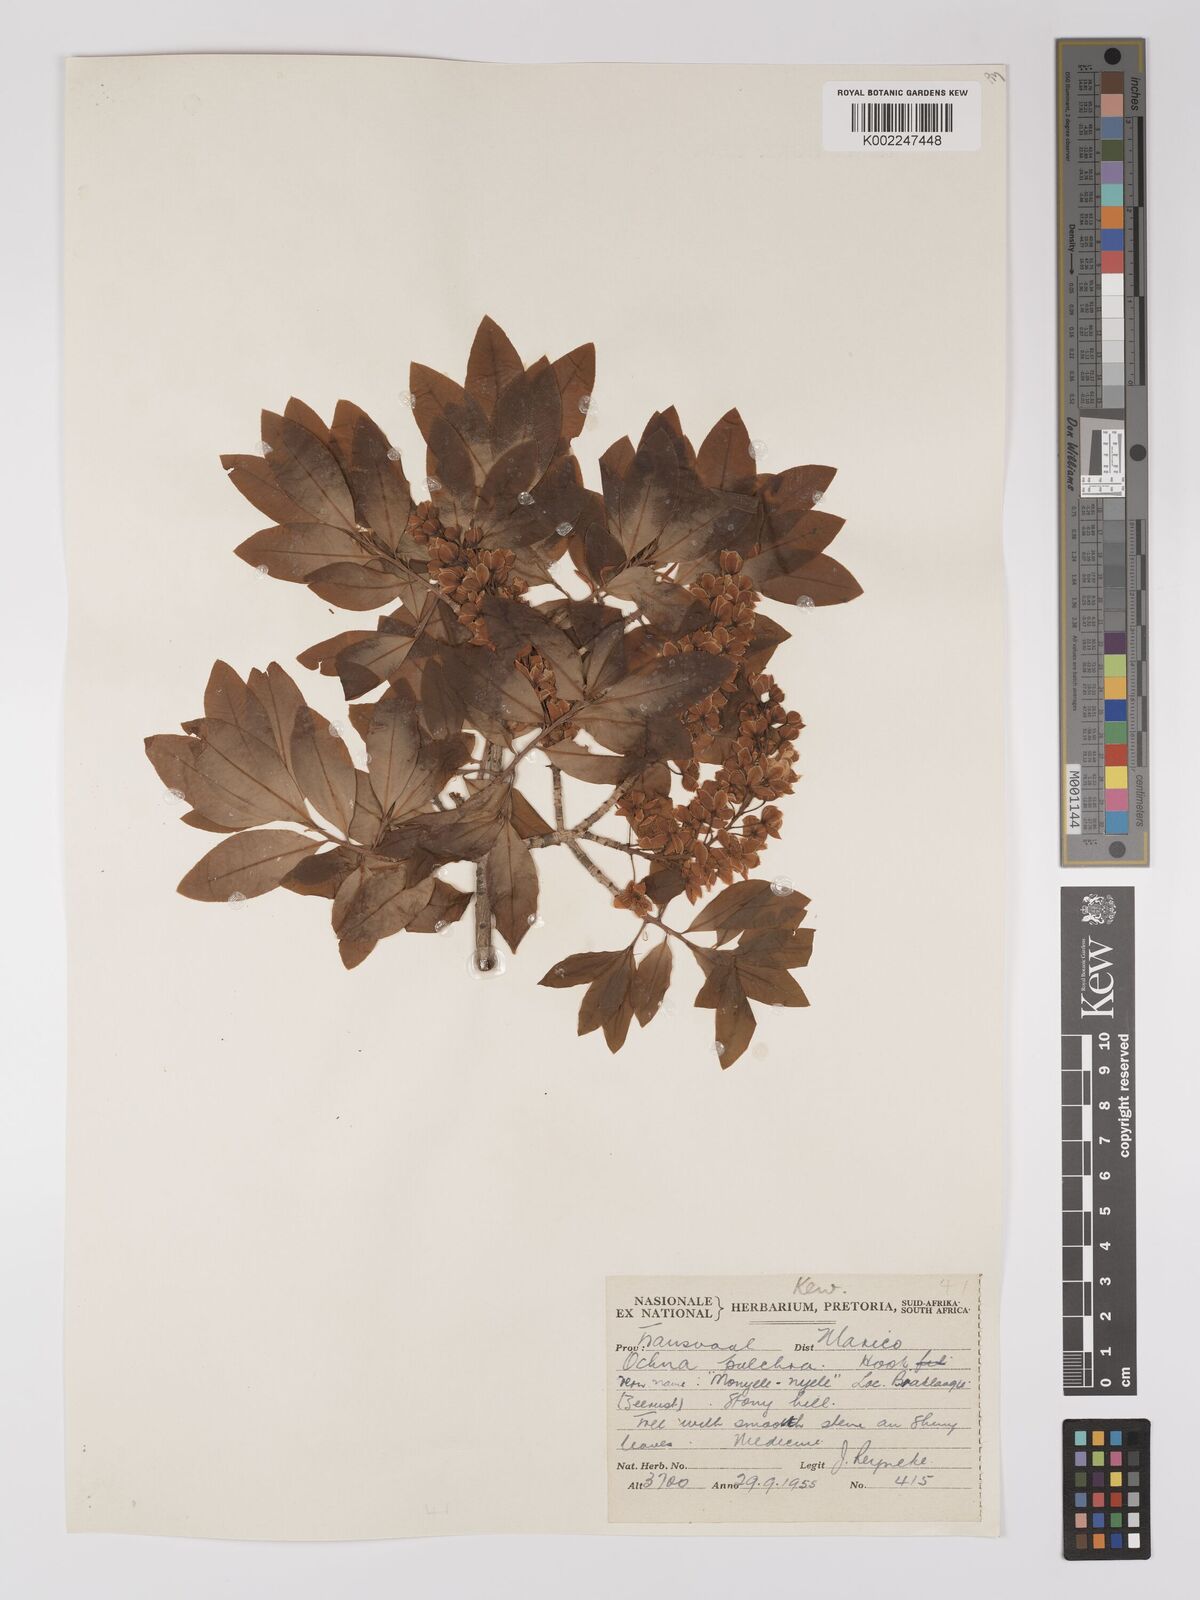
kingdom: Plantae
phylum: Tracheophyta
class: Magnoliopsida
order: Malpighiales
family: Ochnaceae
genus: Ochna
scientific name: Ochna pulchra
